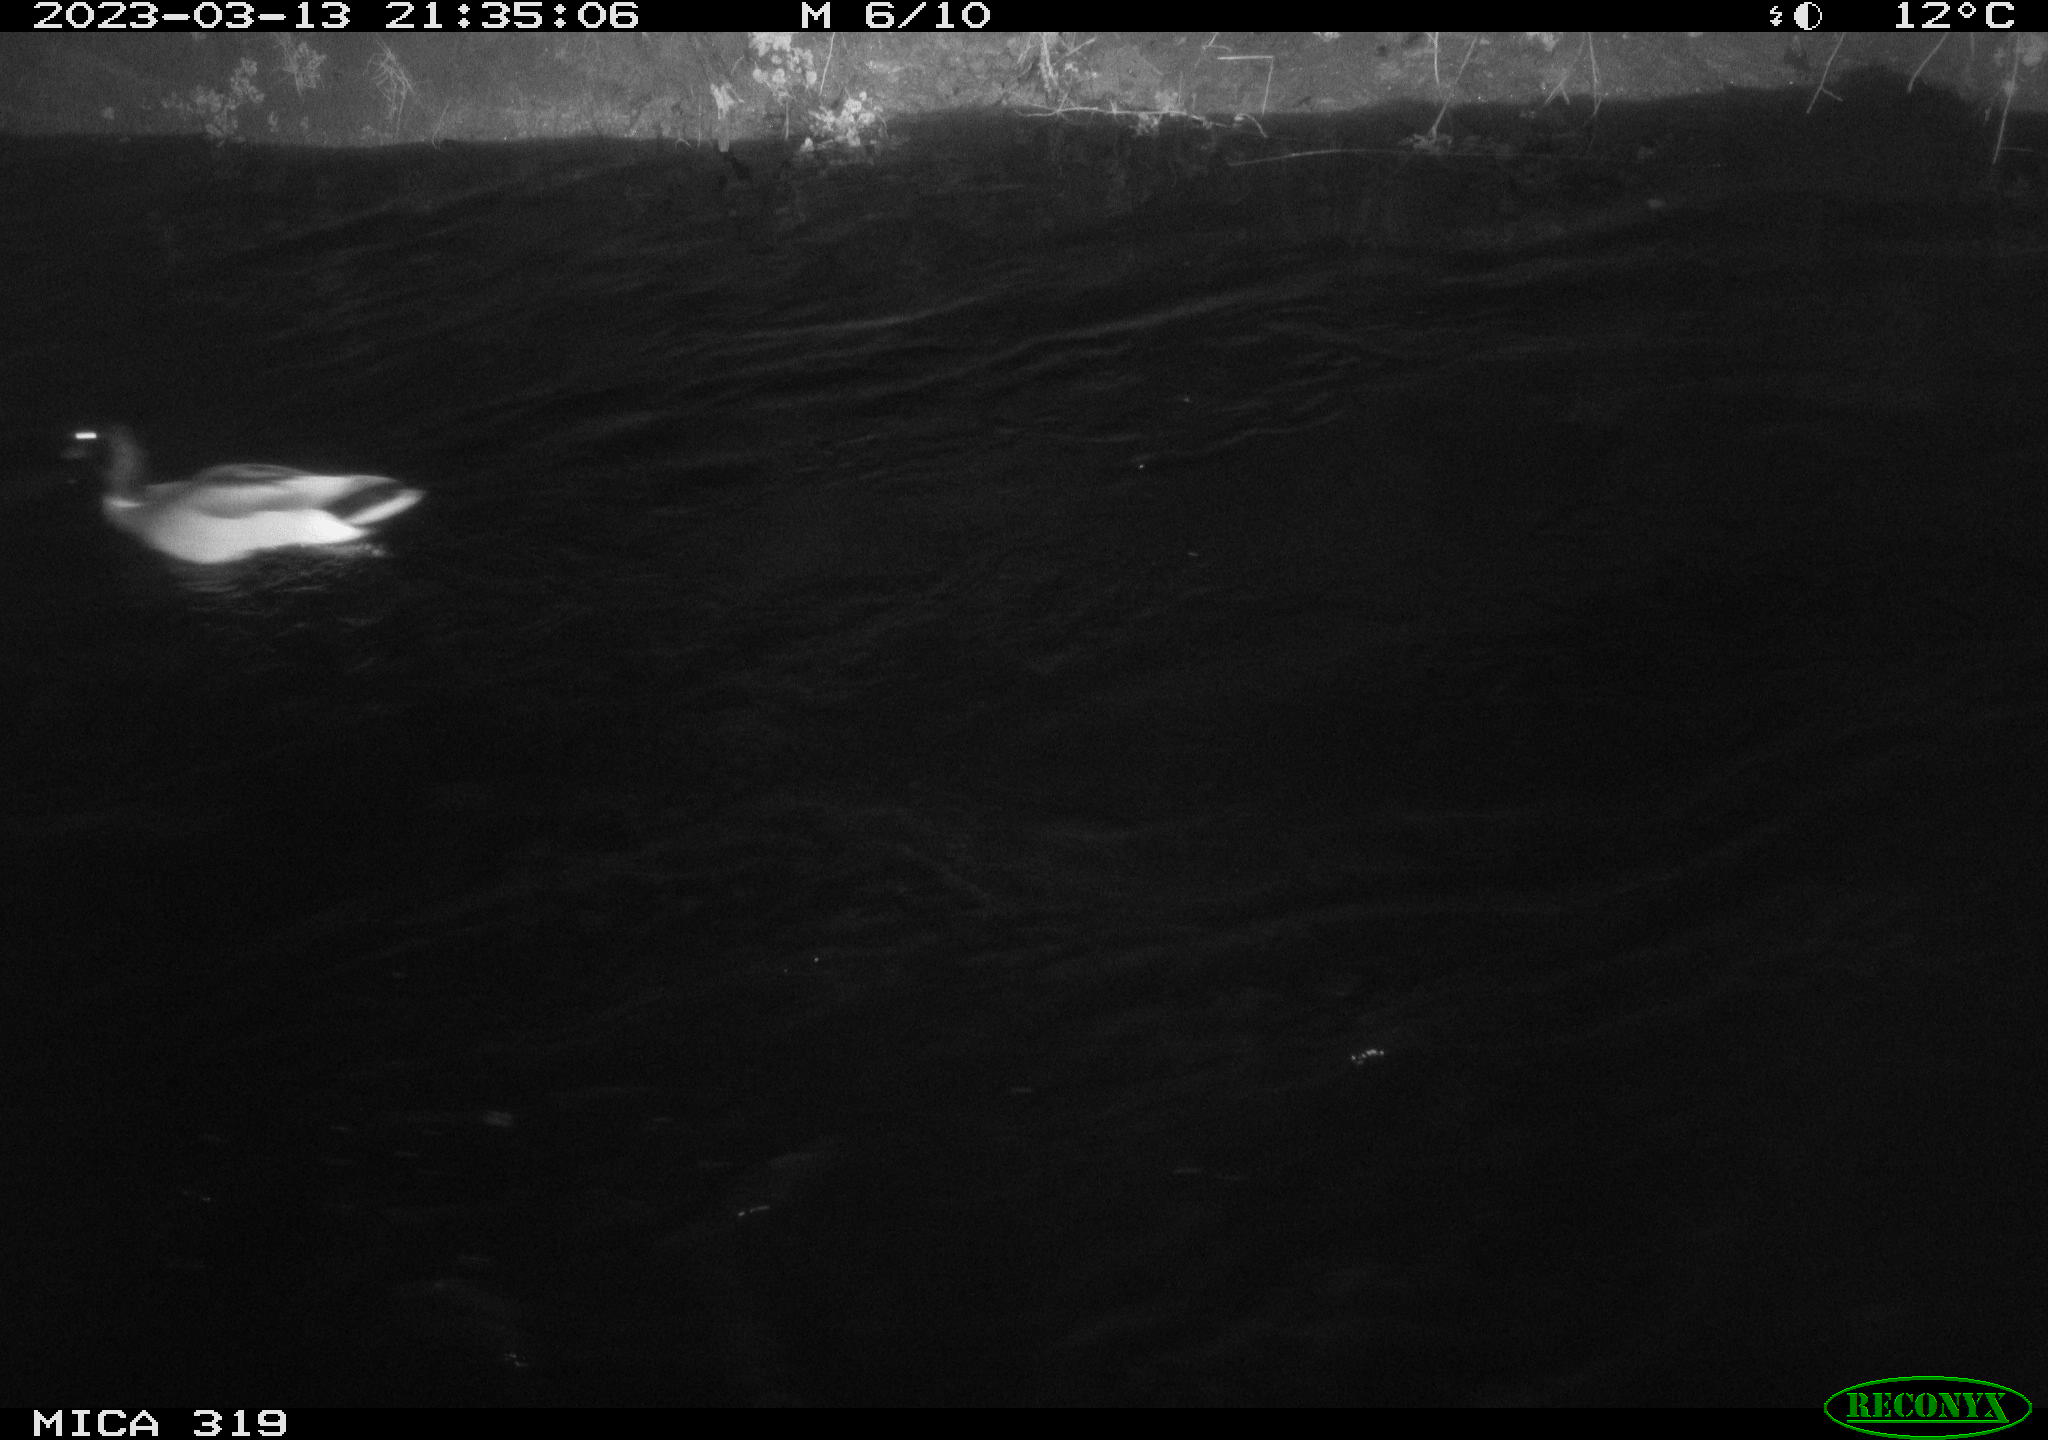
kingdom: Animalia
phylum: Chordata
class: Aves
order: Anseriformes
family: Anatidae
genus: Anas
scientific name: Anas
